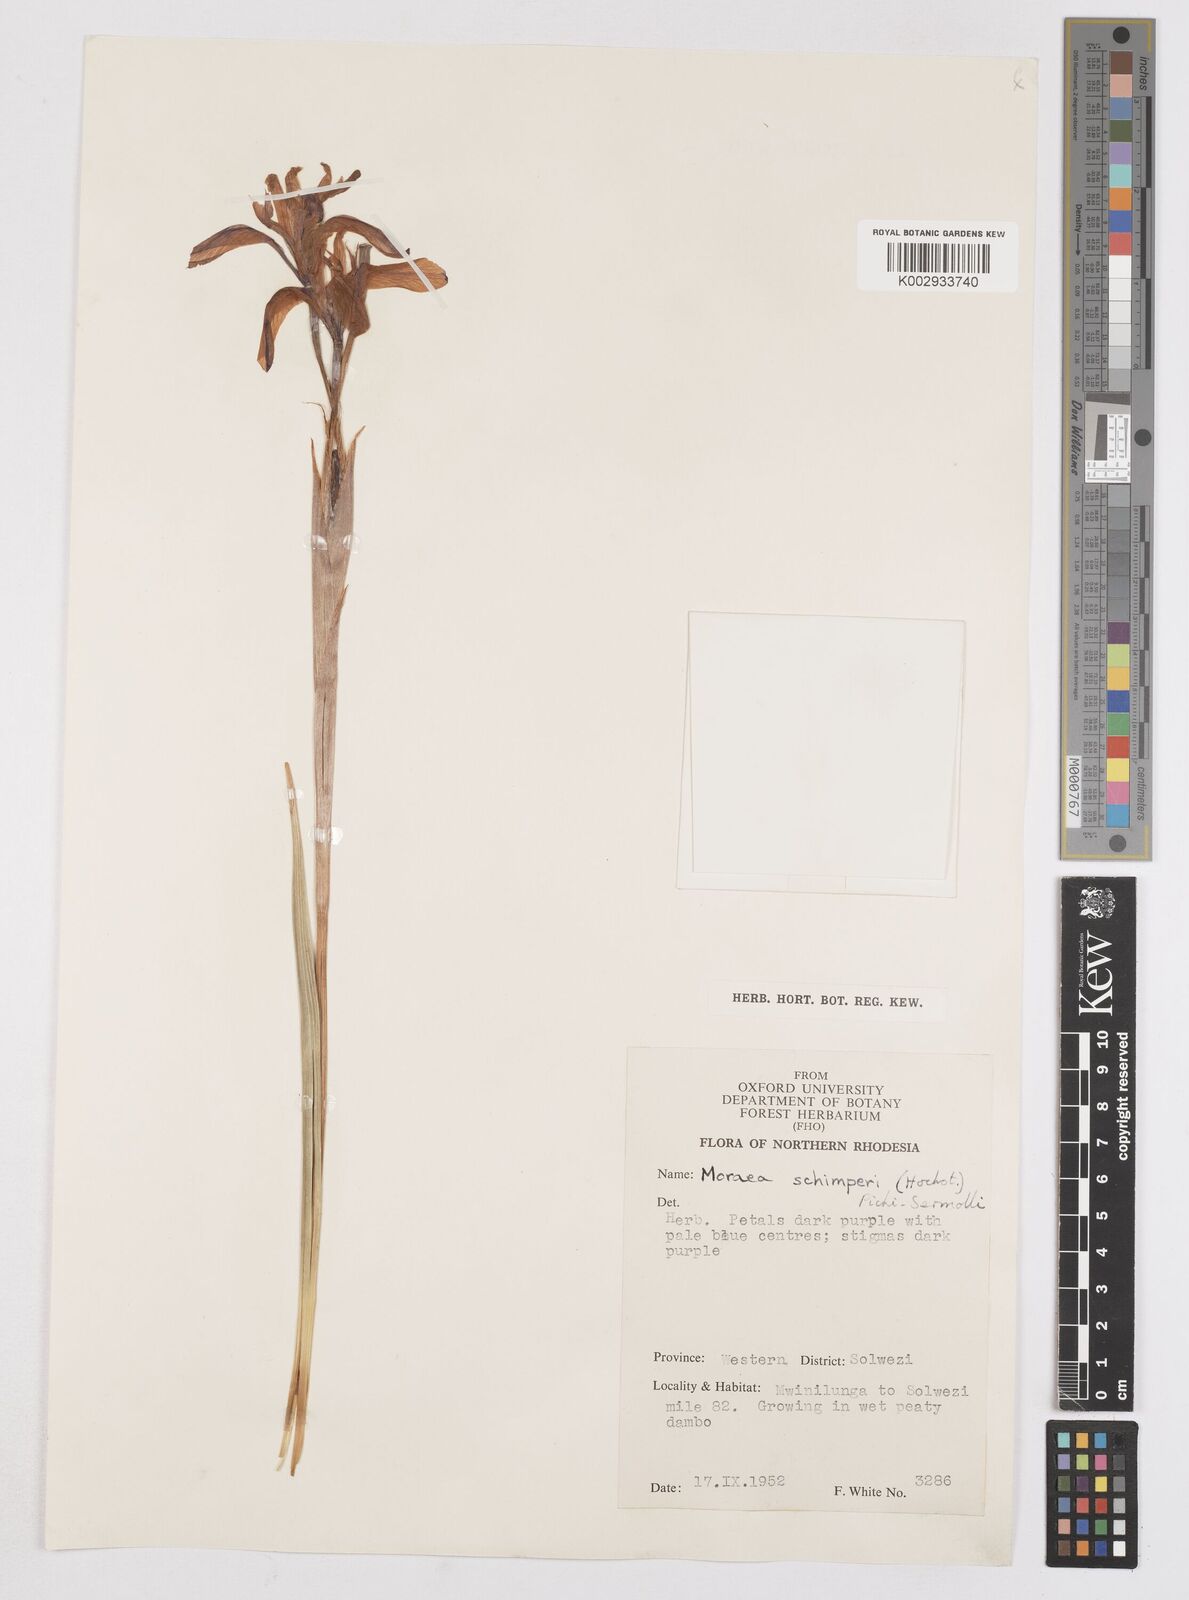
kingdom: Plantae
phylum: Tracheophyta
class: Liliopsida
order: Asparagales
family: Iridaceae
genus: Moraea
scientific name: Moraea schimperi
